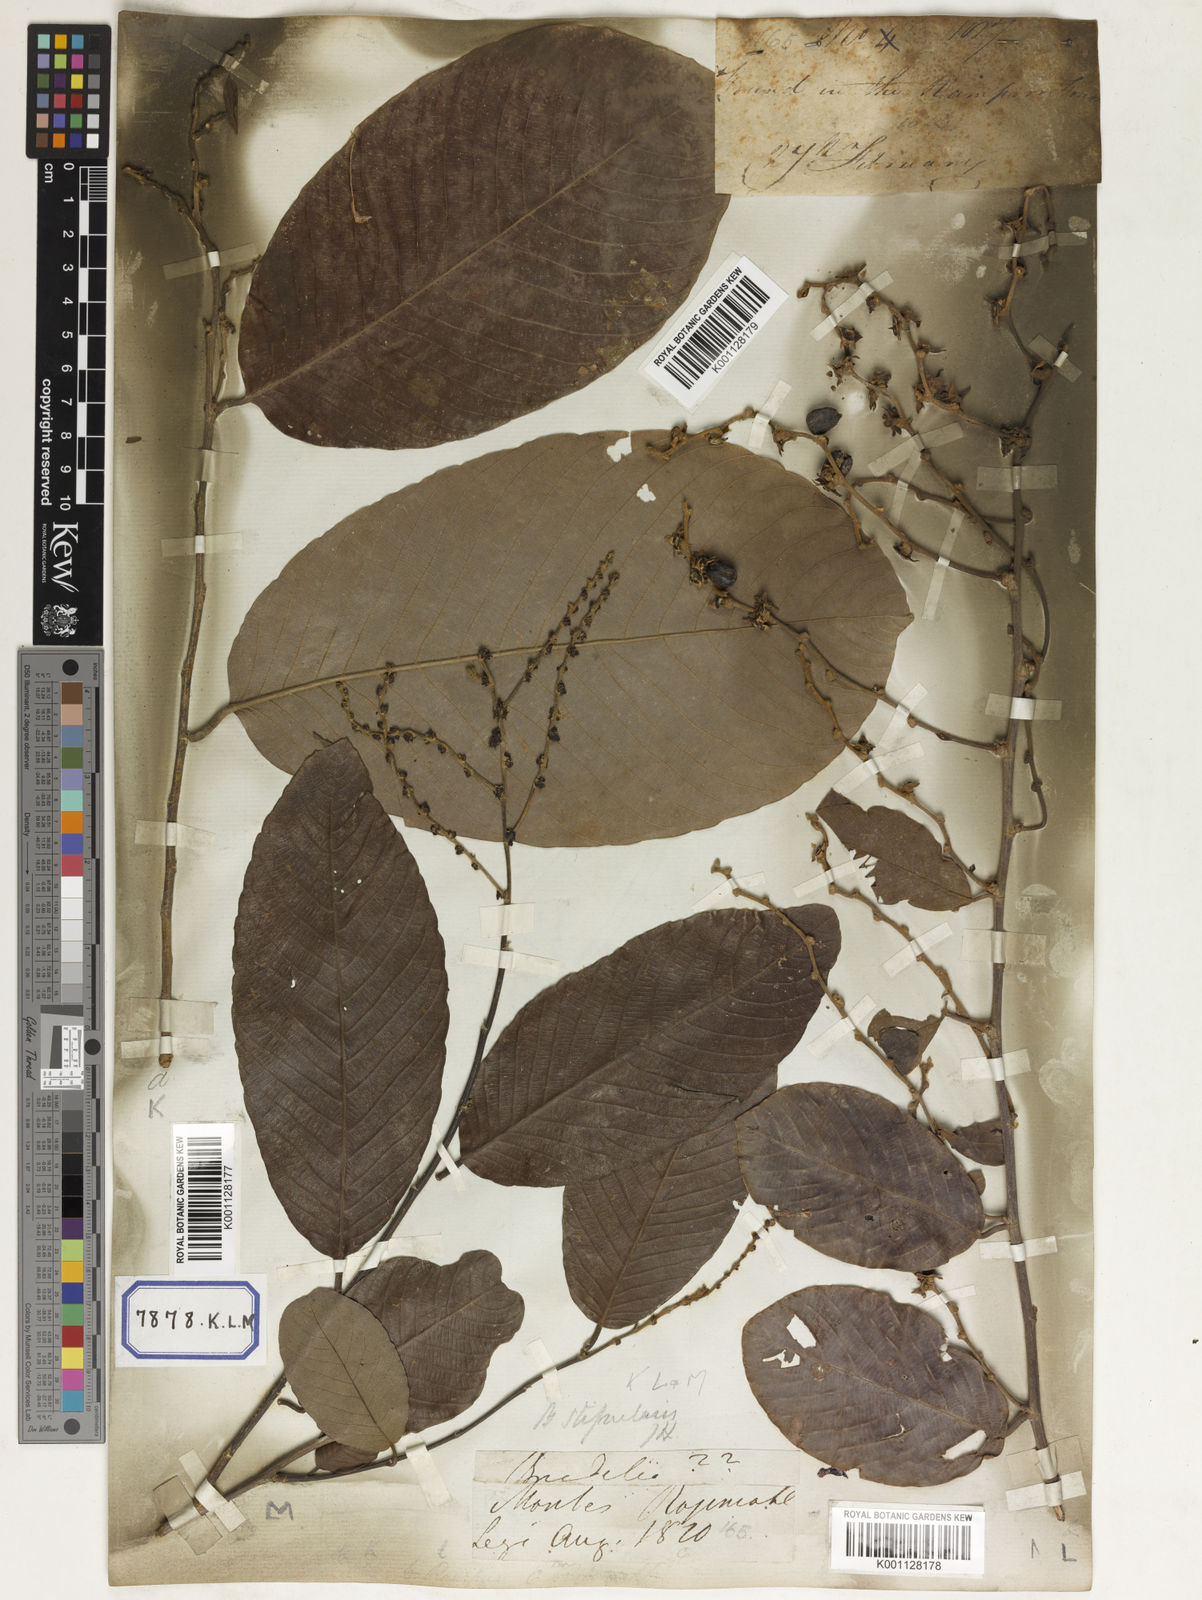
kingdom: Plantae
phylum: Tracheophyta
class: Magnoliopsida
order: Malpighiales
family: Phyllanthaceae
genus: Bridelia
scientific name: Bridelia
